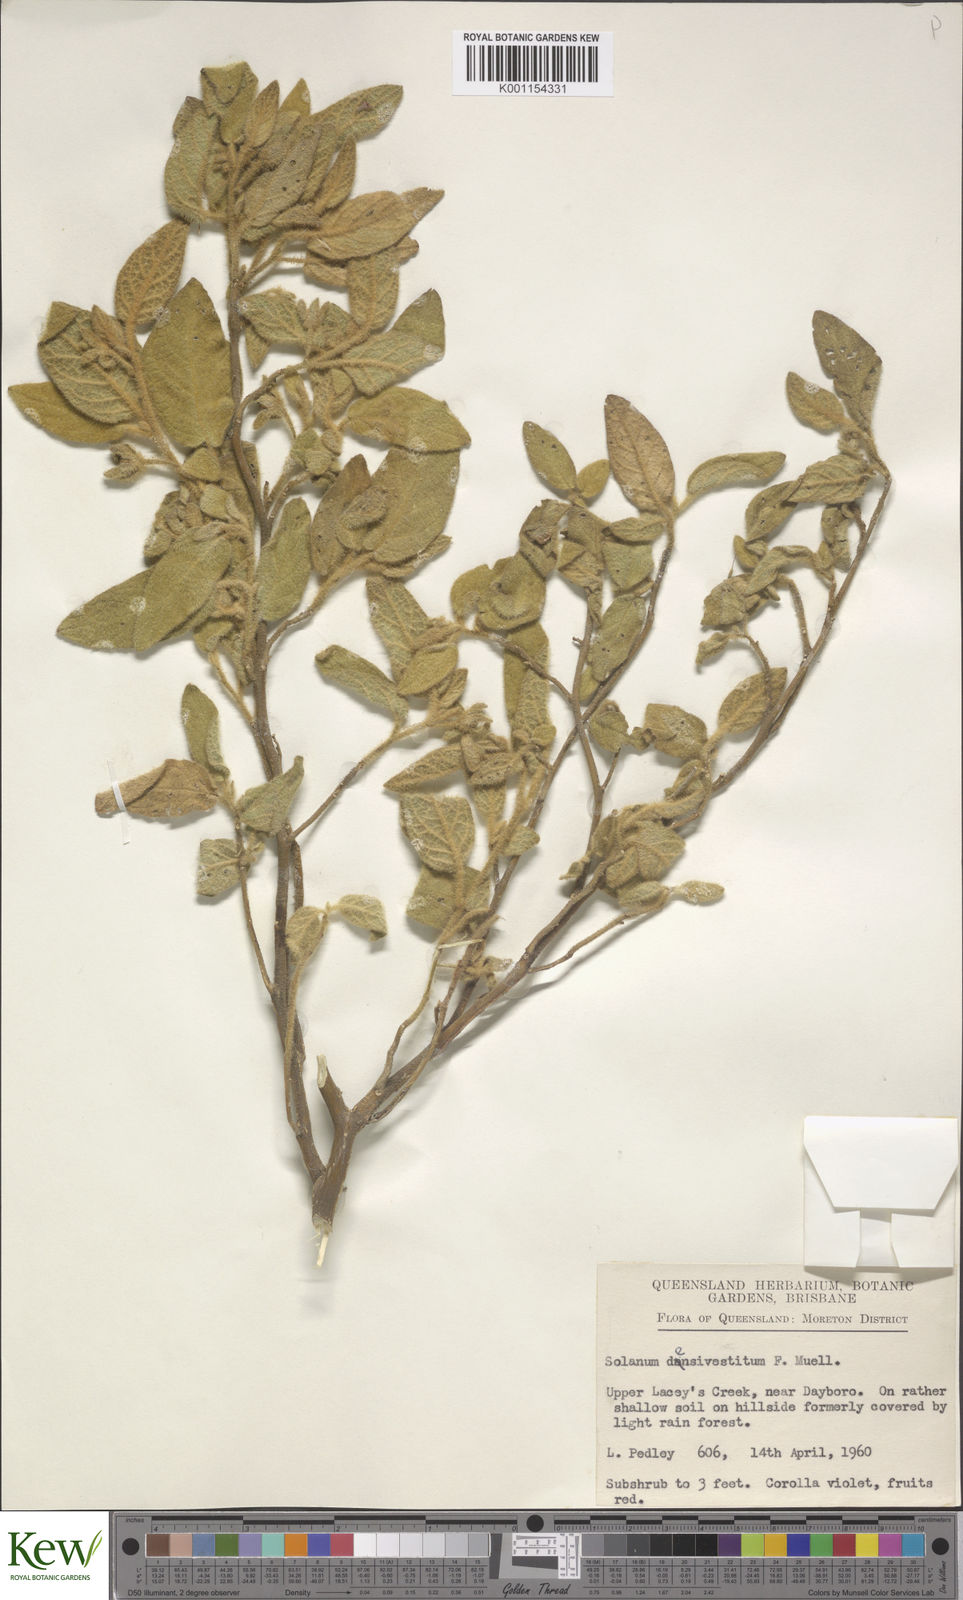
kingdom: Plantae
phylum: Tracheophyta
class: Magnoliopsida
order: Solanales
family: Solanaceae
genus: Solanum
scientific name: Solanum densevestitum
